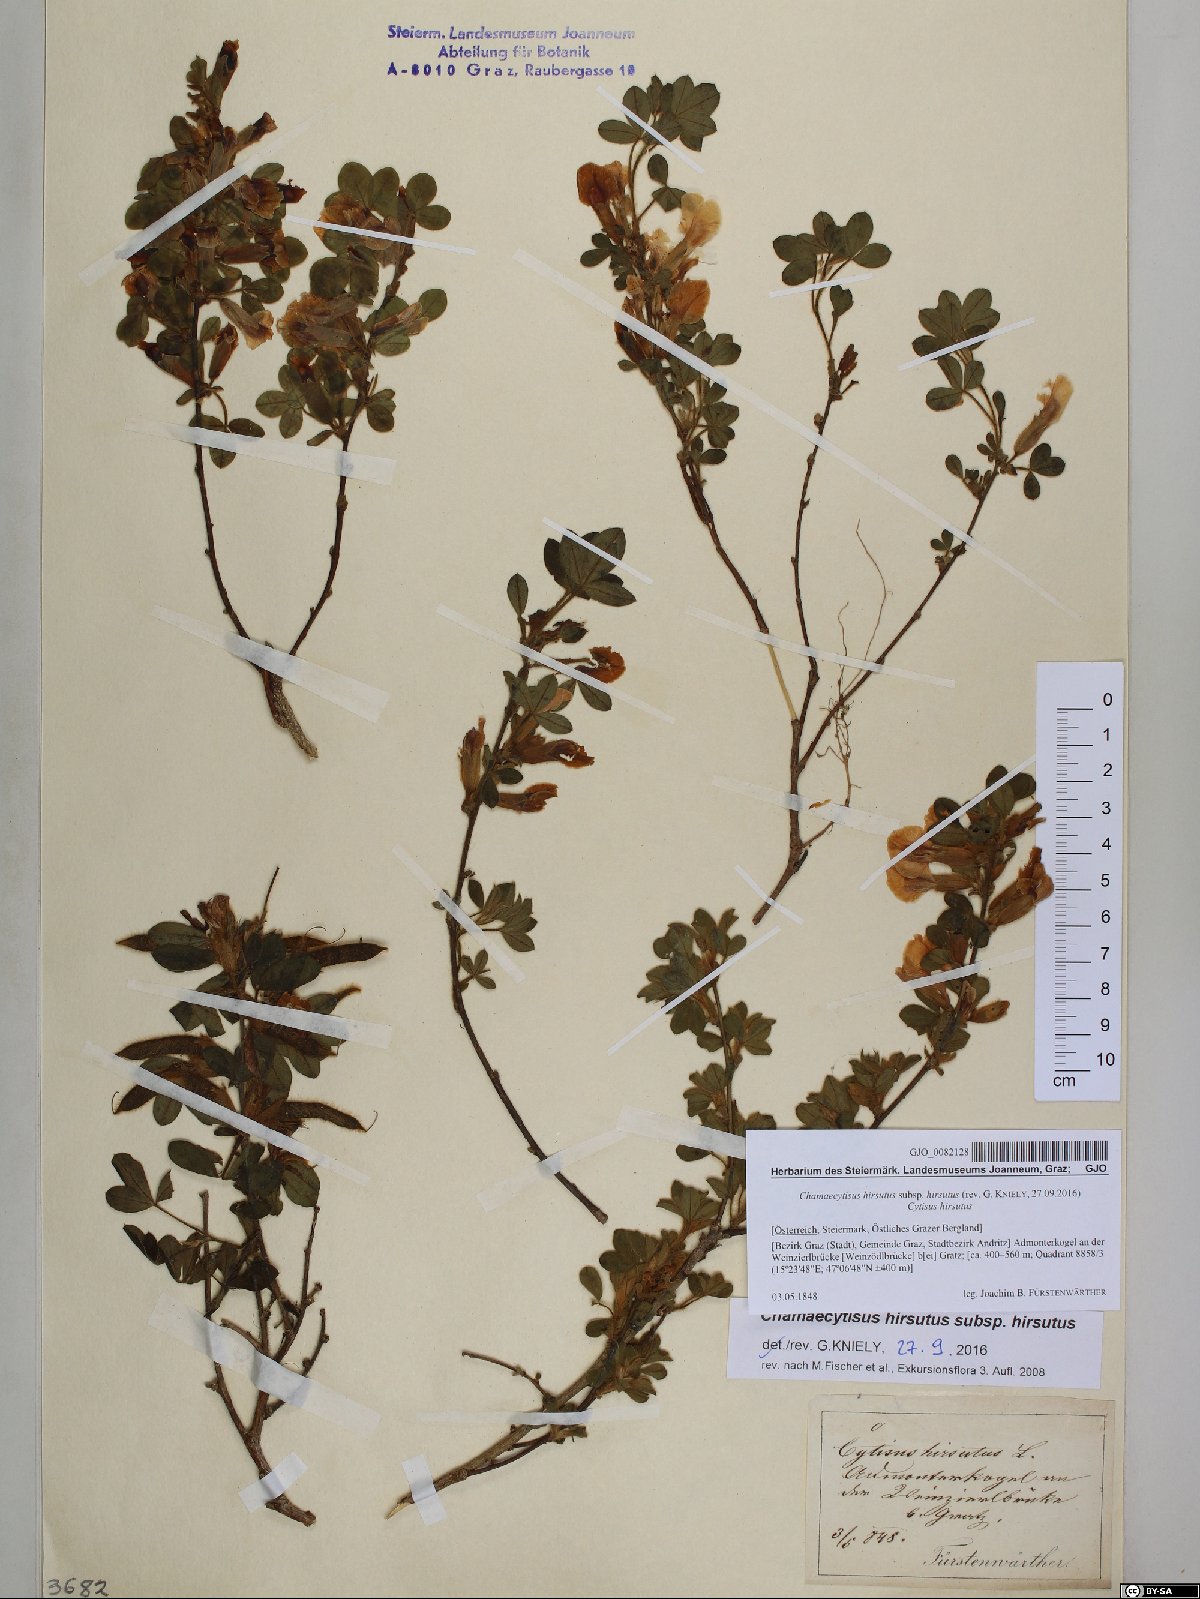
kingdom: Plantae
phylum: Tracheophyta
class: Magnoliopsida
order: Fabales
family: Fabaceae
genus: Chamaecytisus
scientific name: Chamaecytisus hirsutus
